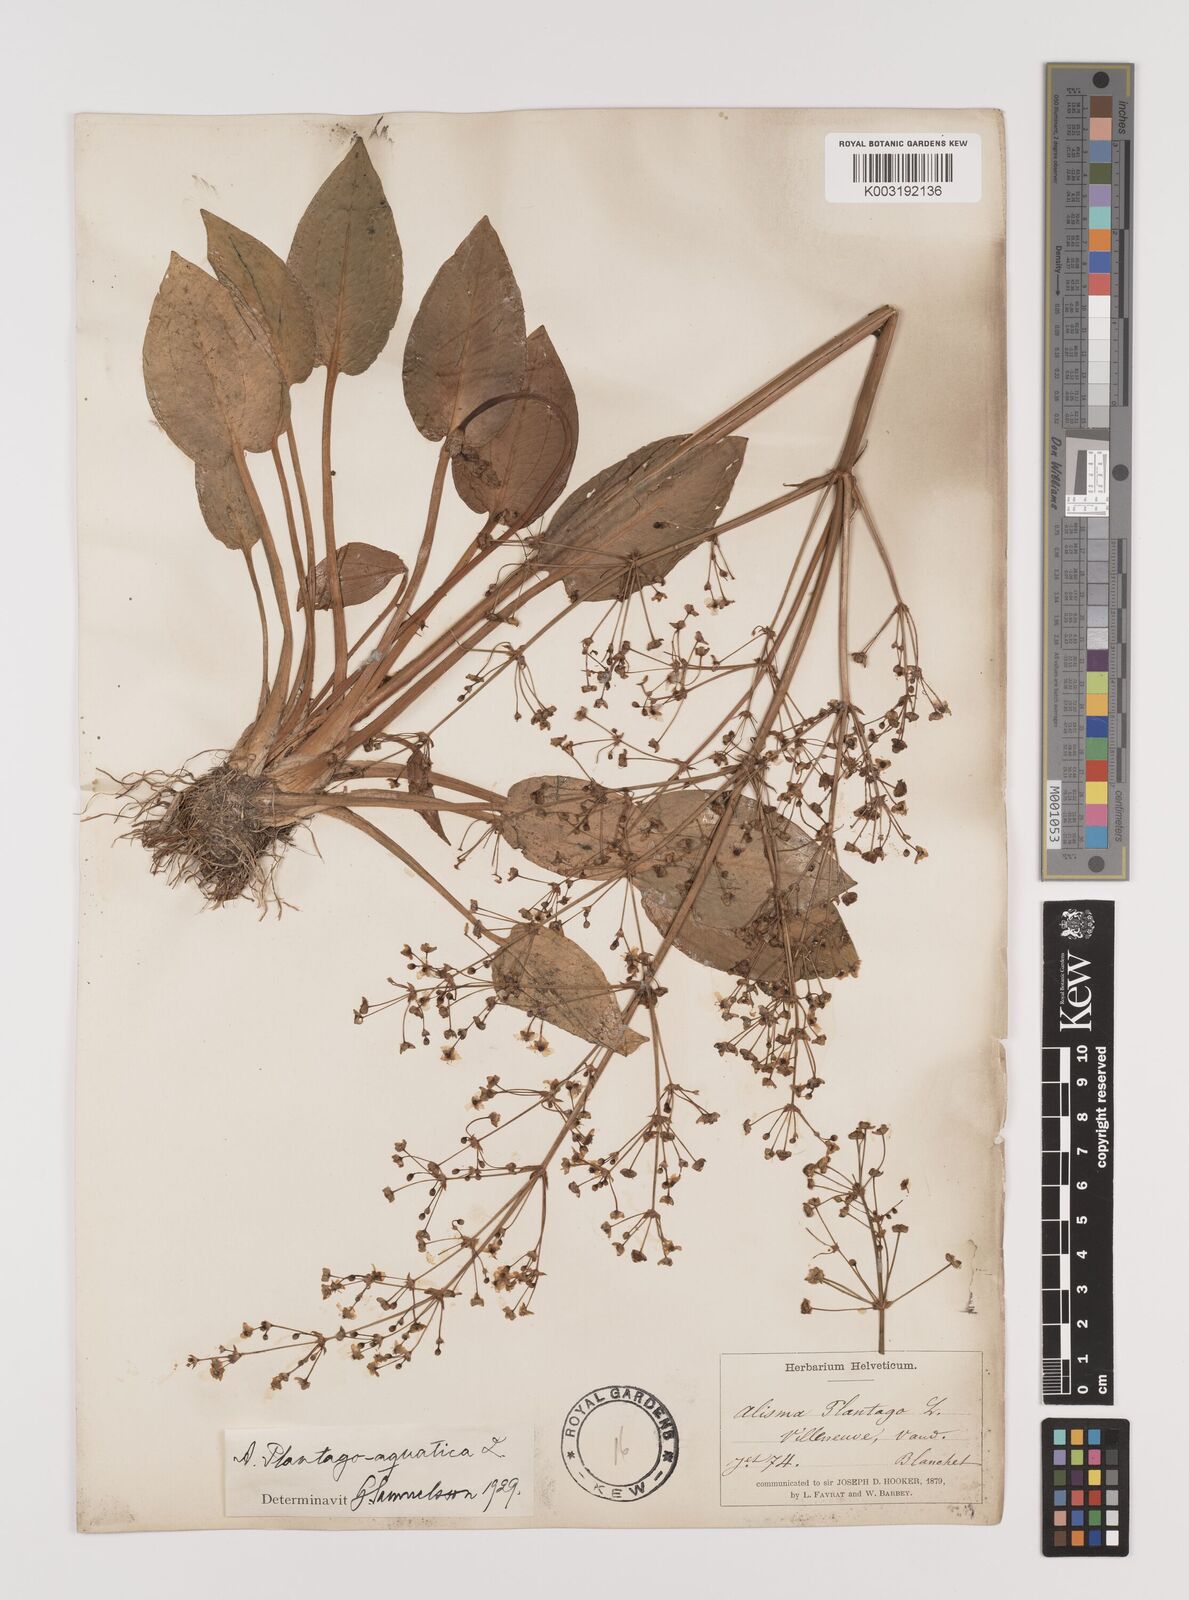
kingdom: Plantae
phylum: Tracheophyta
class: Liliopsida
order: Alismatales
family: Alismataceae
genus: Alisma
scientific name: Alisma plantago-aquatica
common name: Water-plantain
